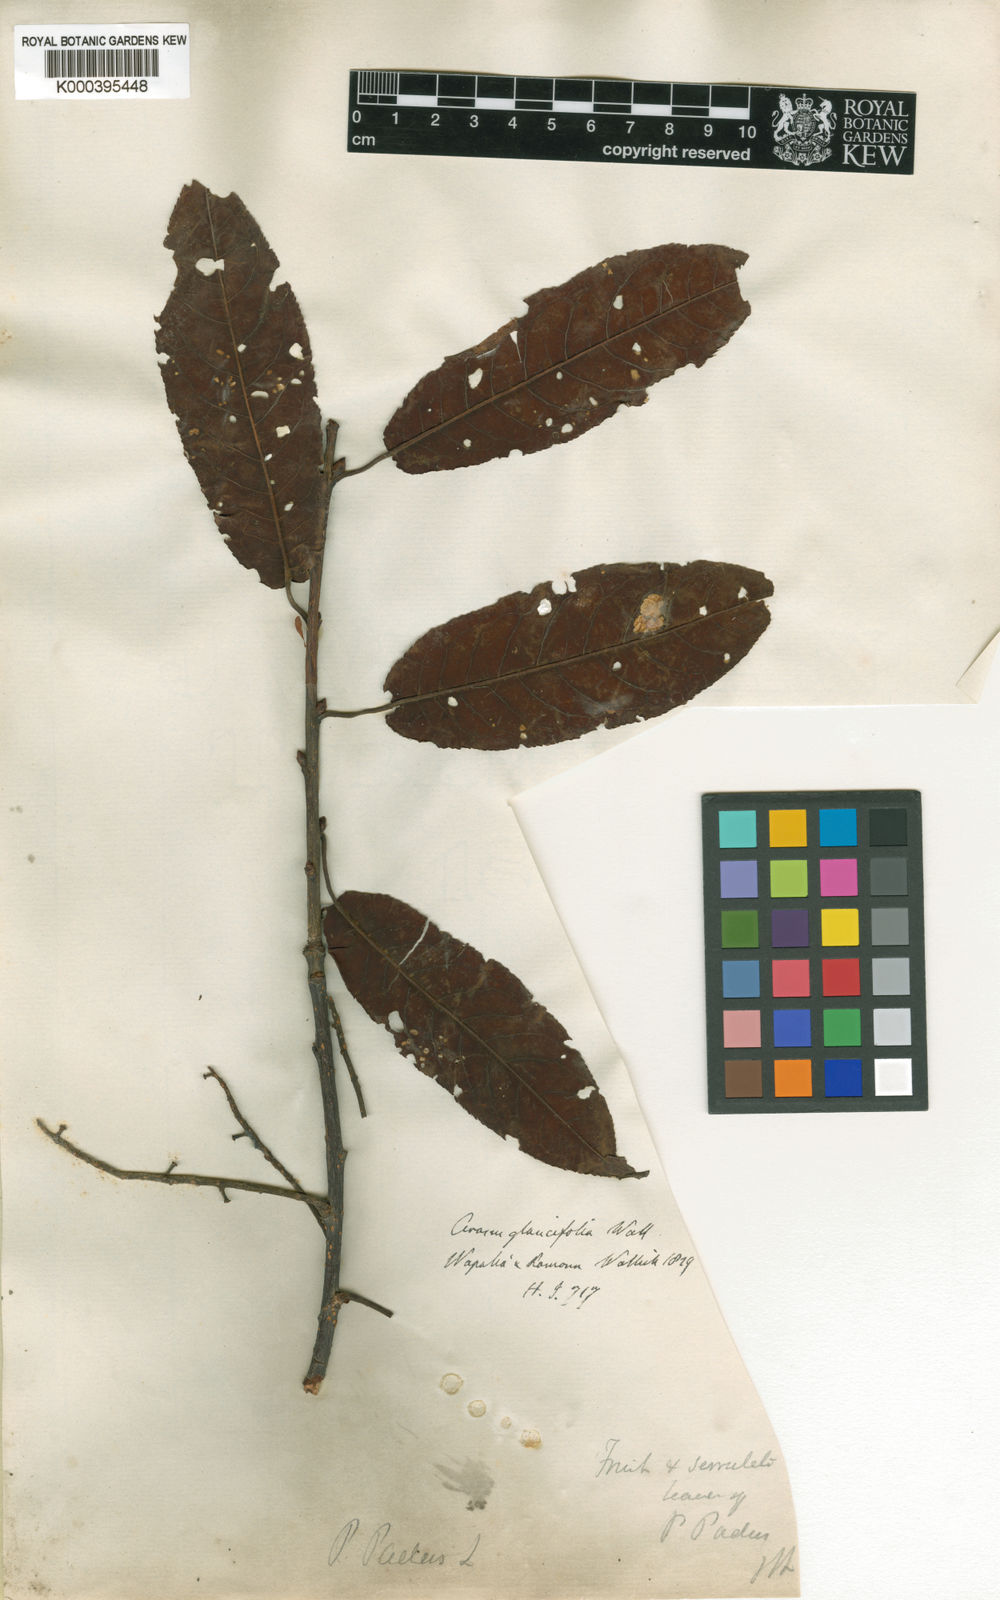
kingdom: Plantae
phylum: Tracheophyta
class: Magnoliopsida
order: Rosales
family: Rosaceae
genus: Prunus
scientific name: Prunus
